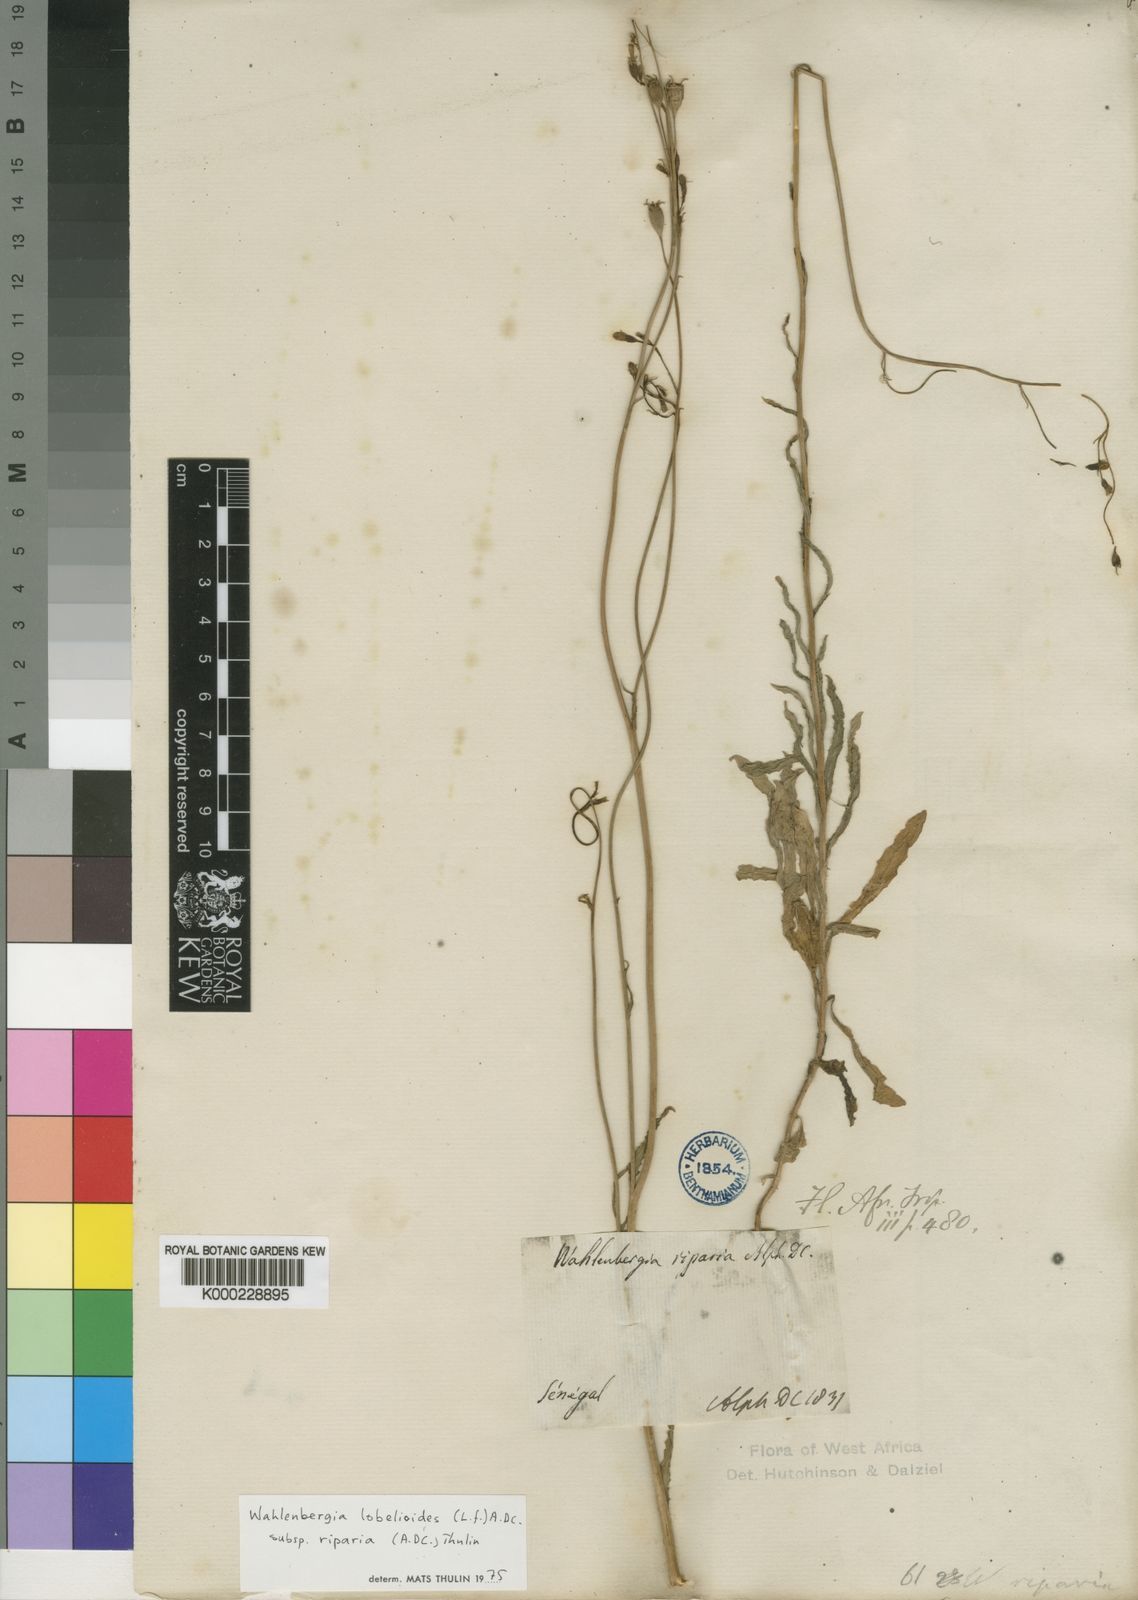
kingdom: Plantae
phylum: Tracheophyta
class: Magnoliopsida
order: Asterales
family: Campanulaceae
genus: Wahlenbergia
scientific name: Wahlenbergia lobelioides
